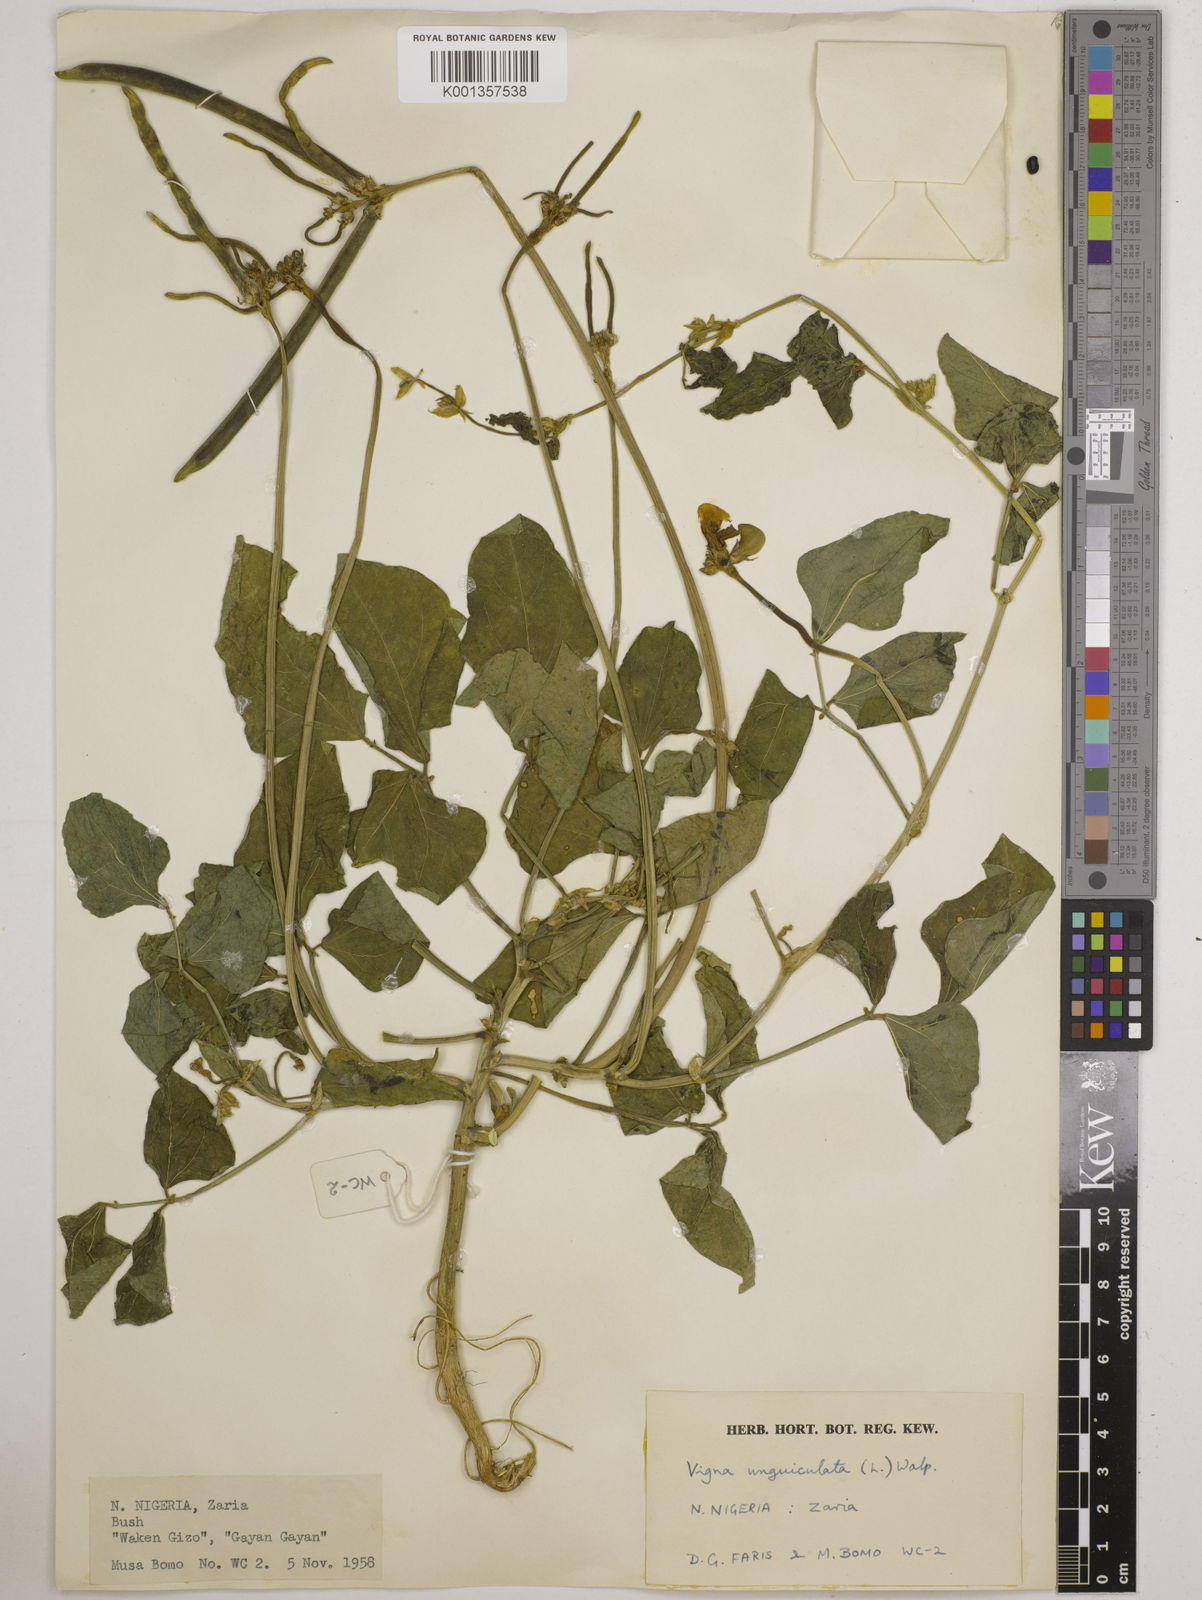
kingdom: Plantae
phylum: Tracheophyta
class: Magnoliopsida
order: Fabales
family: Fabaceae
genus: Vigna
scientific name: Vigna
